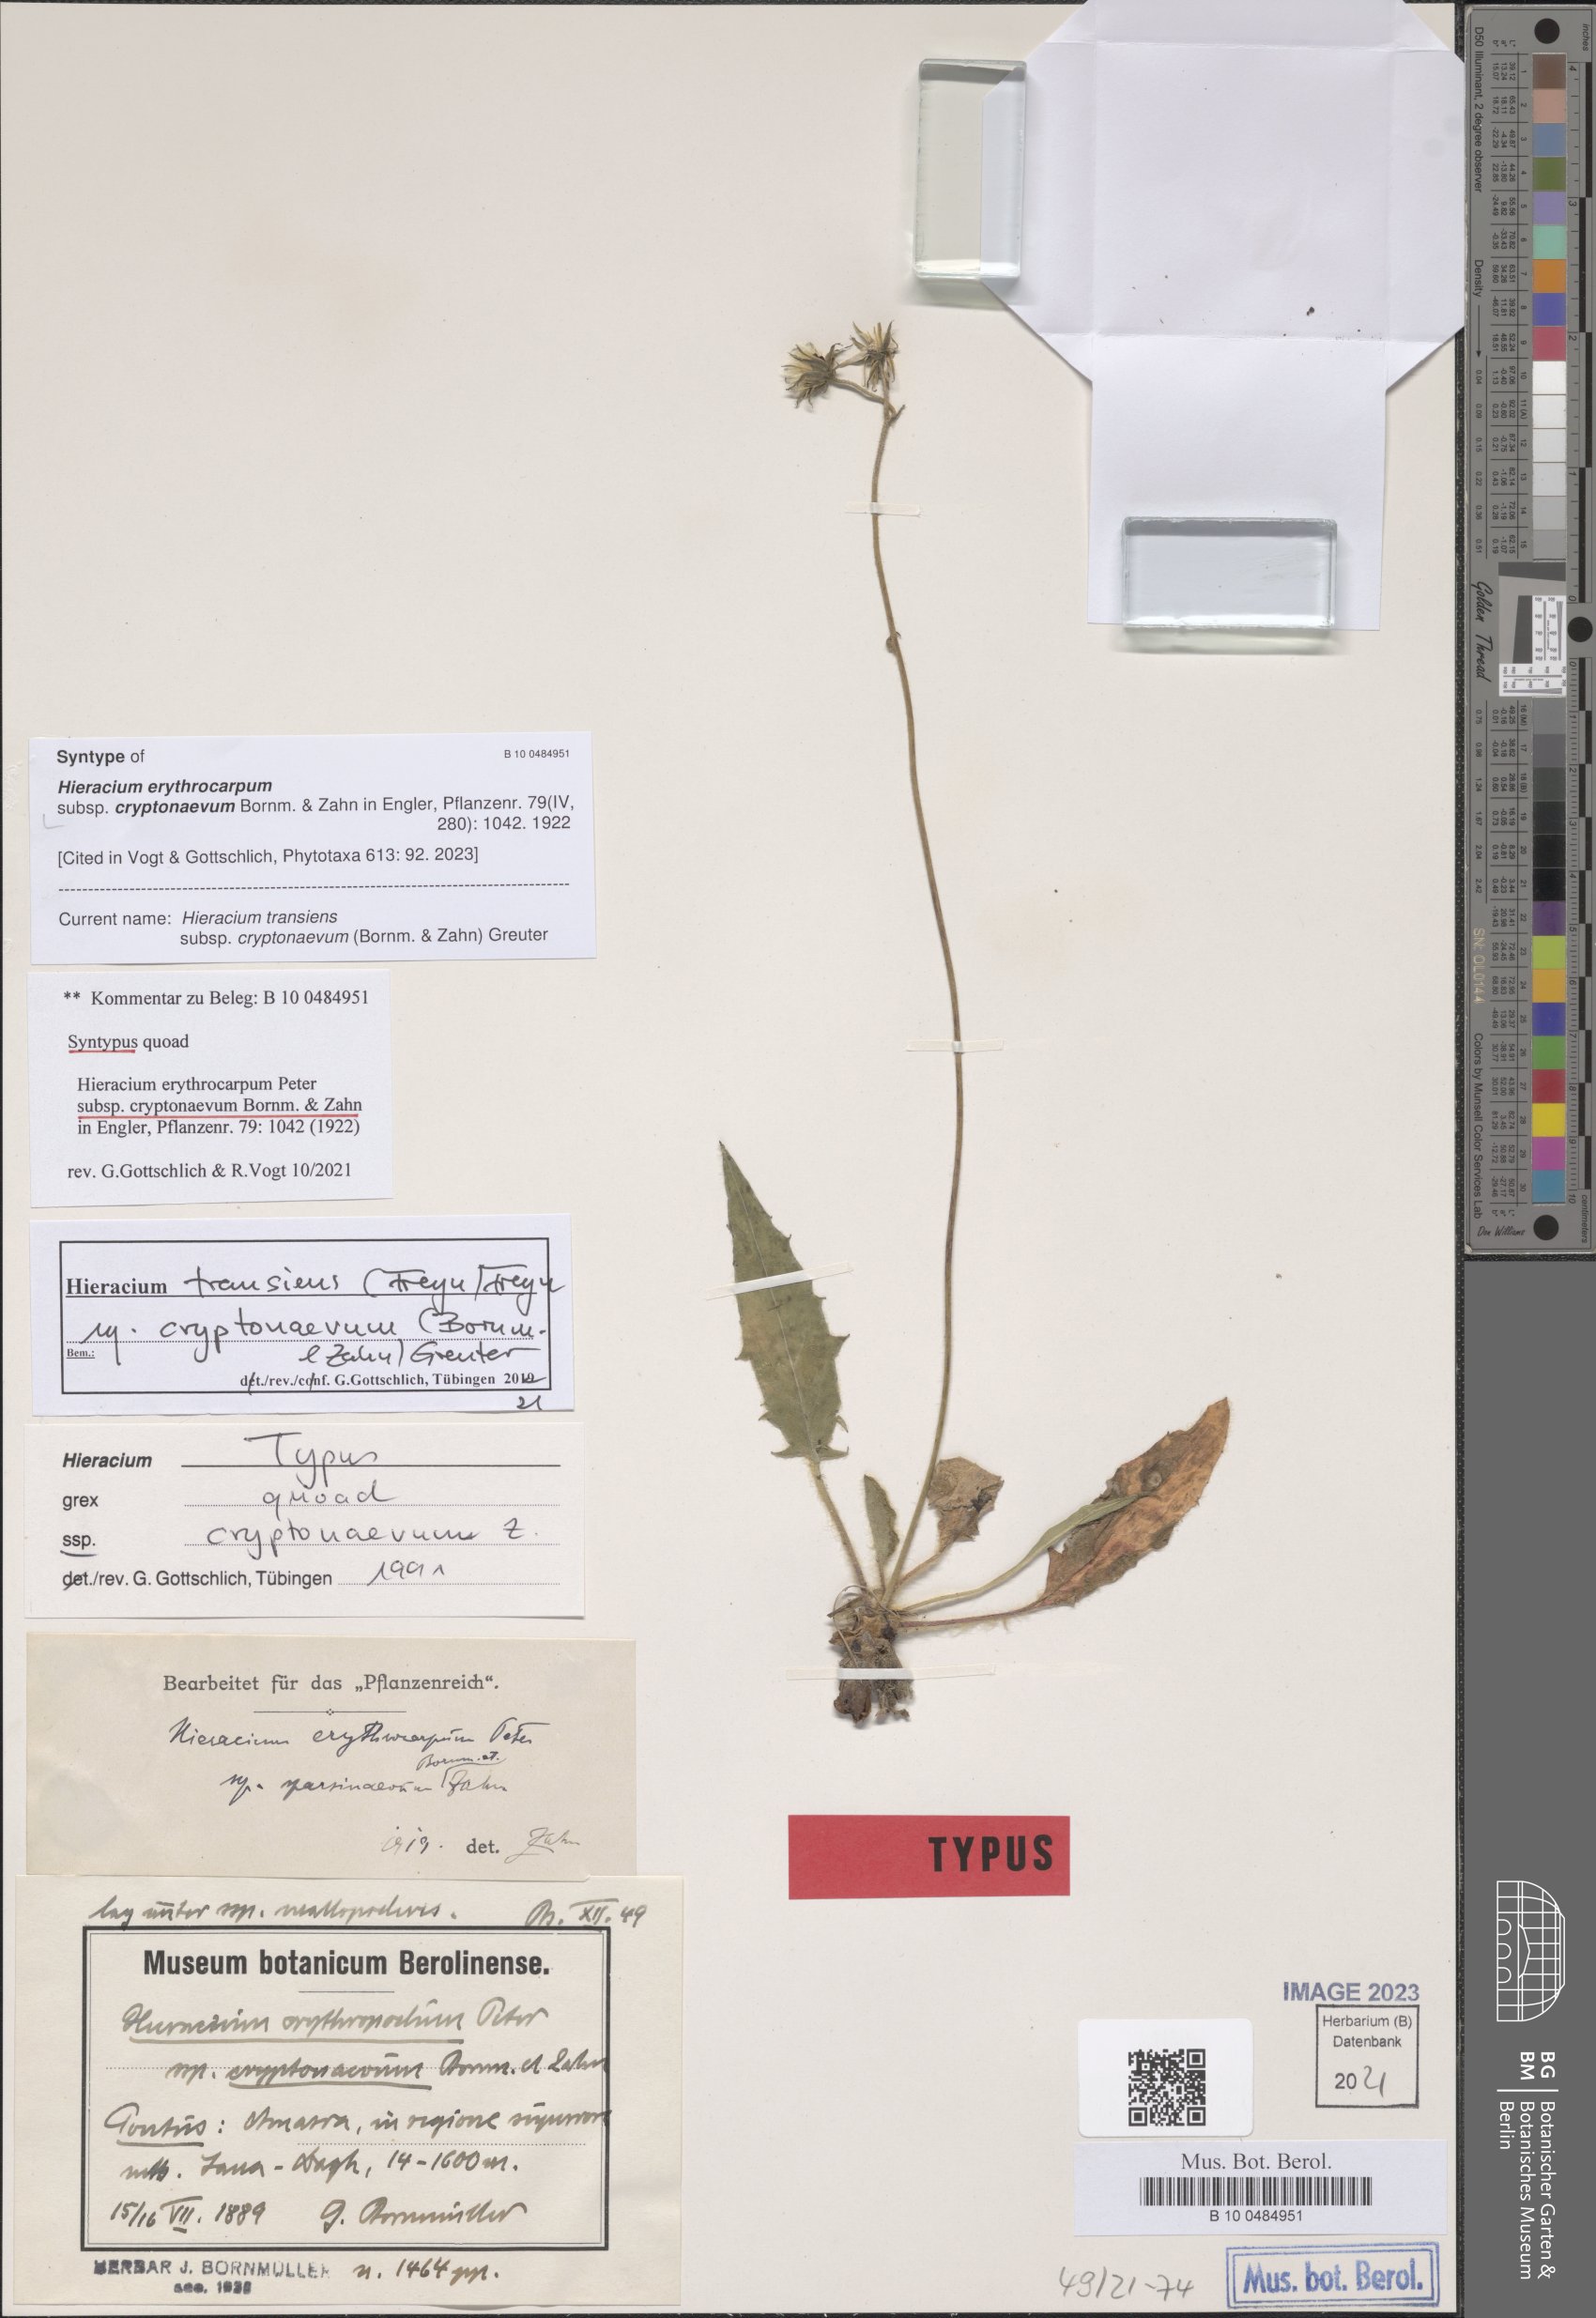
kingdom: Plantae
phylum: Tracheophyta
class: Magnoliopsida
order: Asterales
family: Asteraceae
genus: Hieracium
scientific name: Hieracium transiens
